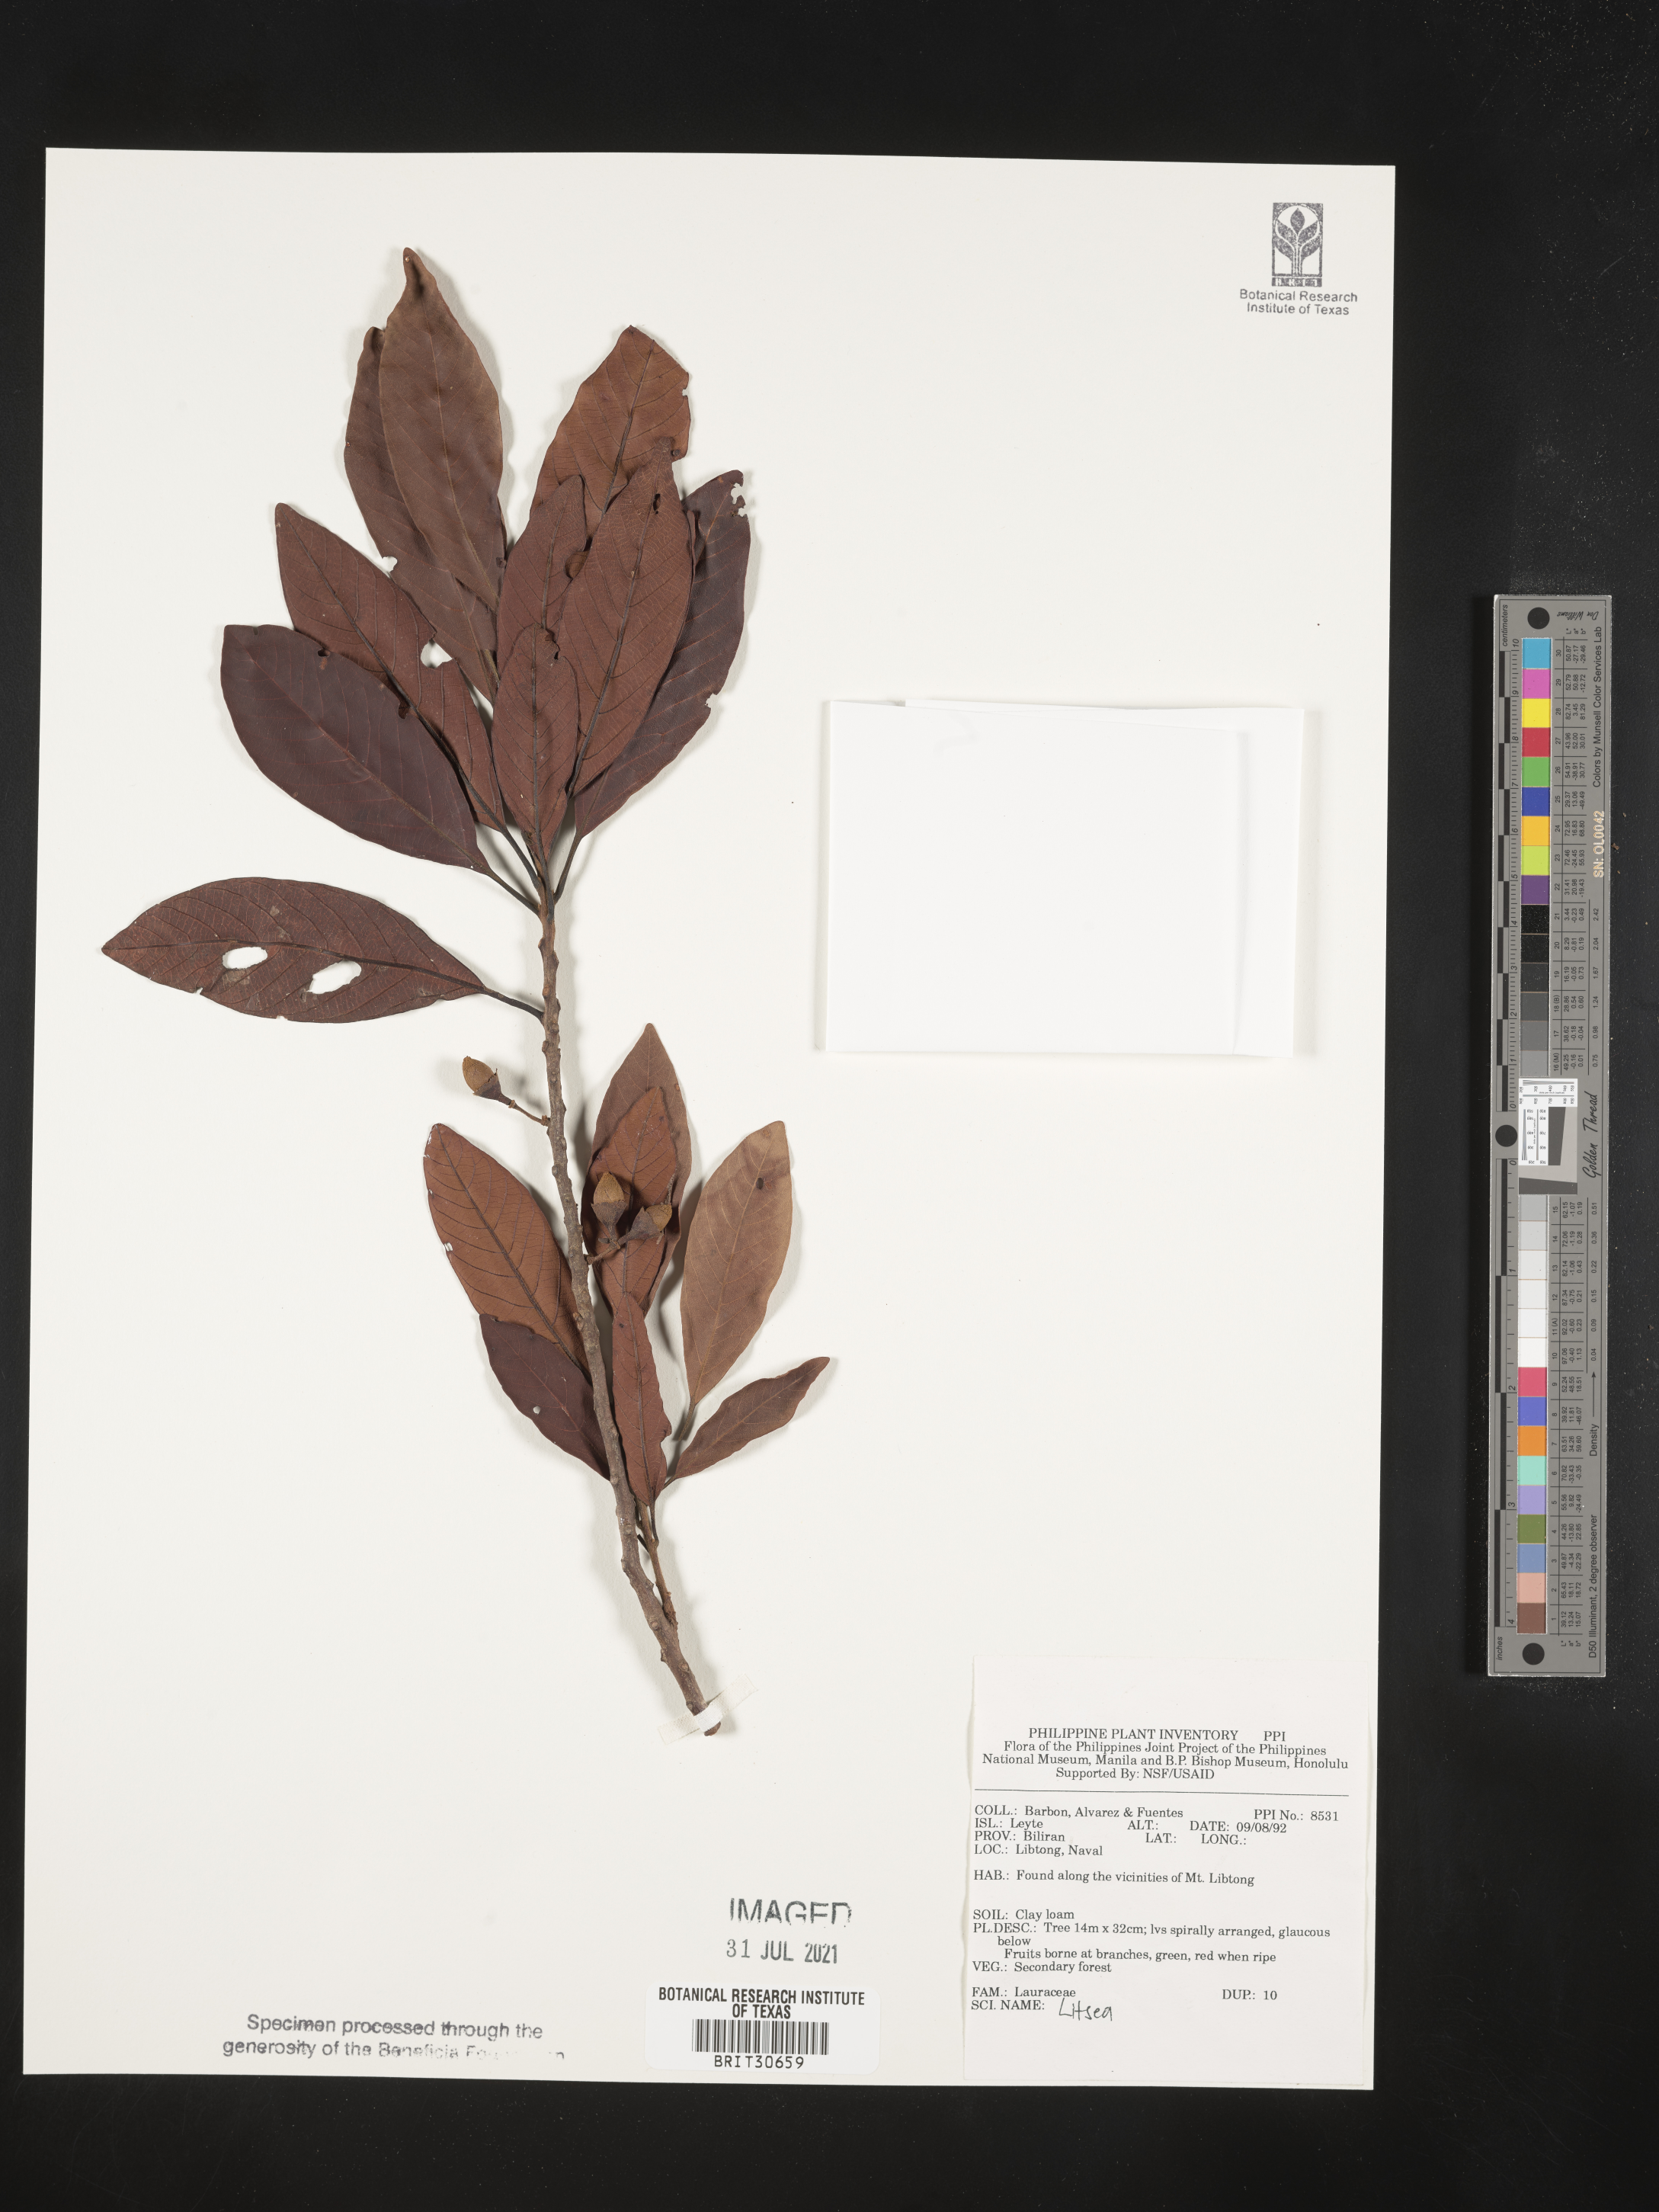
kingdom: Plantae
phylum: Tracheophyta
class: Magnoliopsida
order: Laurales
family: Lauraceae
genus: Litsea
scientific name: Litsea
